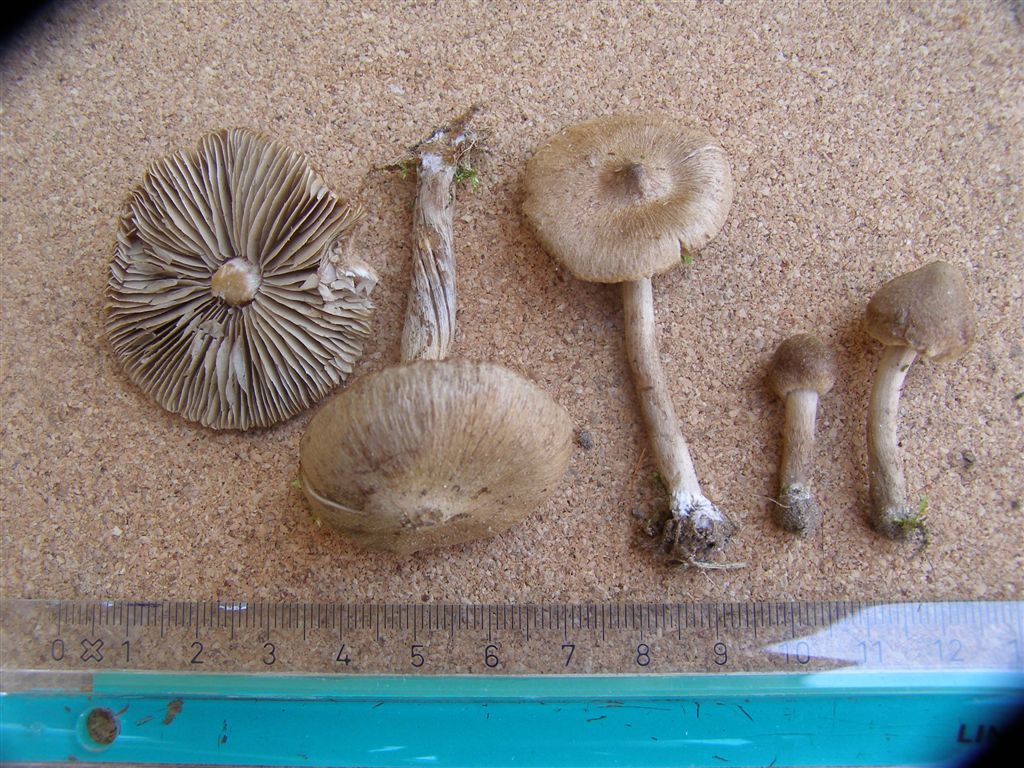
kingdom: Fungi
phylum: Basidiomycota
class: Agaricomycetes
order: Agaricales
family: Inocybaceae
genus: Inocybe
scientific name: Inocybe lacera
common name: laset trævlhat
